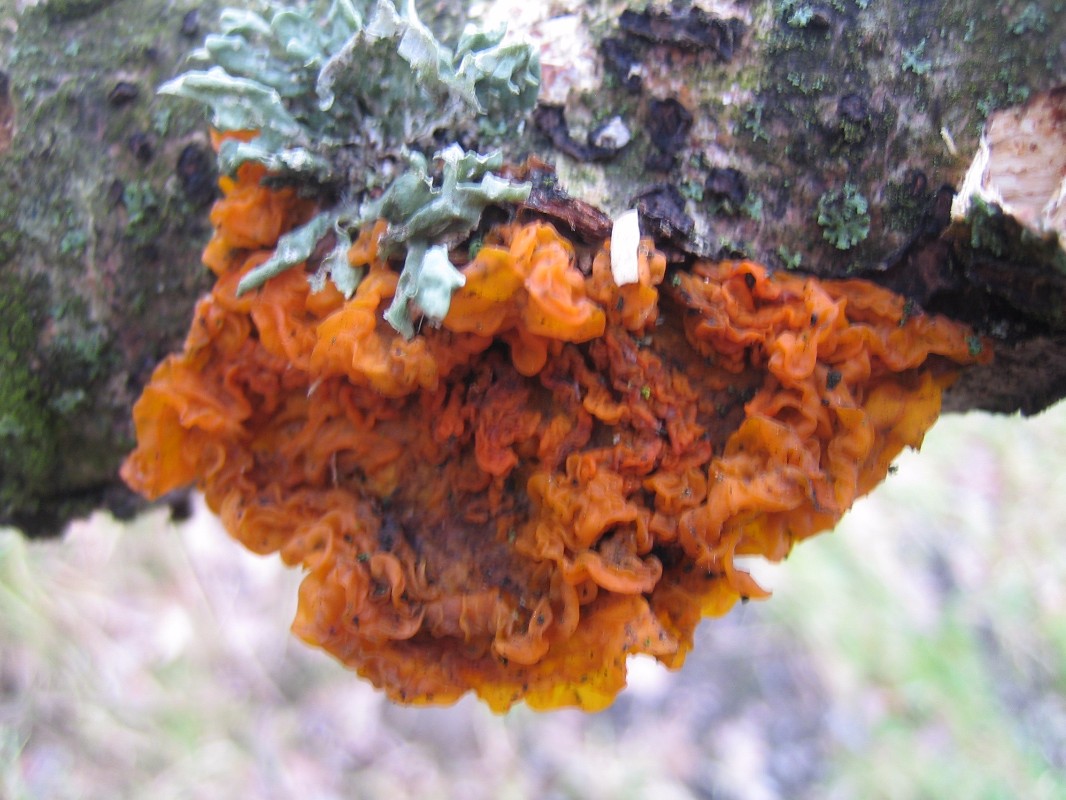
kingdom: Fungi
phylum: Basidiomycota
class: Tremellomycetes
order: Tremellales
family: Tremellaceae
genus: Tremella
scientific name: Tremella mesenterica
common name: gul bævresvamp
